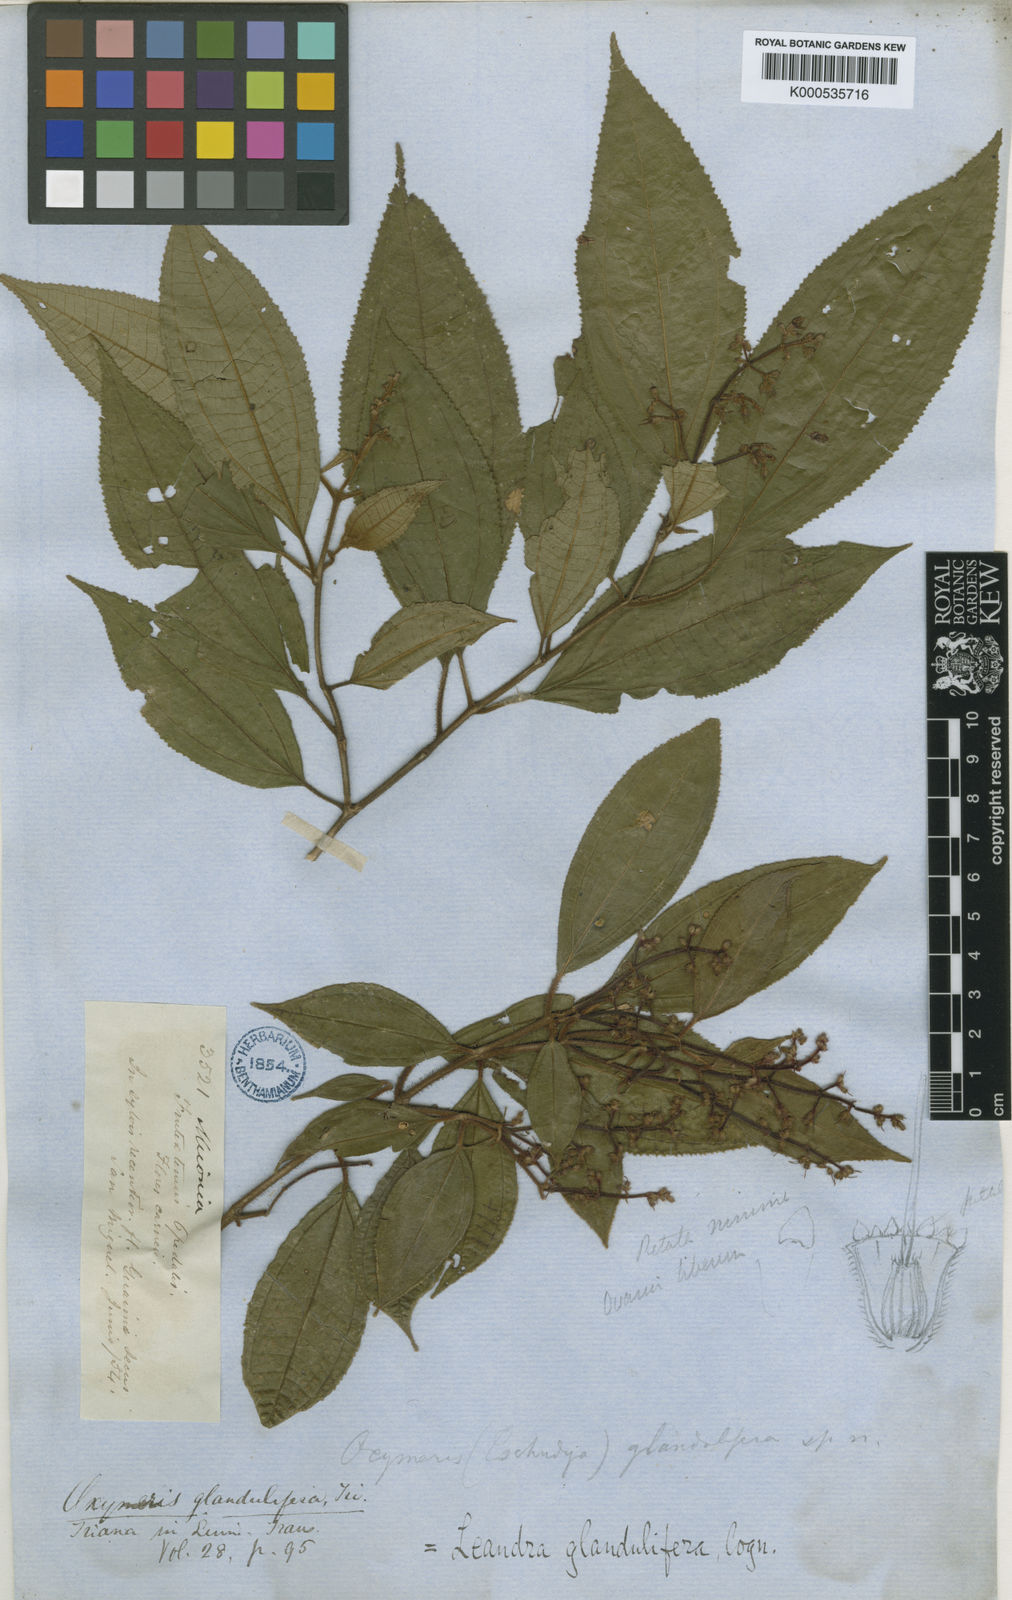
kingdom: Plantae
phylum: Tracheophyta
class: Magnoliopsida
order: Myrtales
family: Melastomataceae
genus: Miconia
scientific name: Miconia glanduliflora
